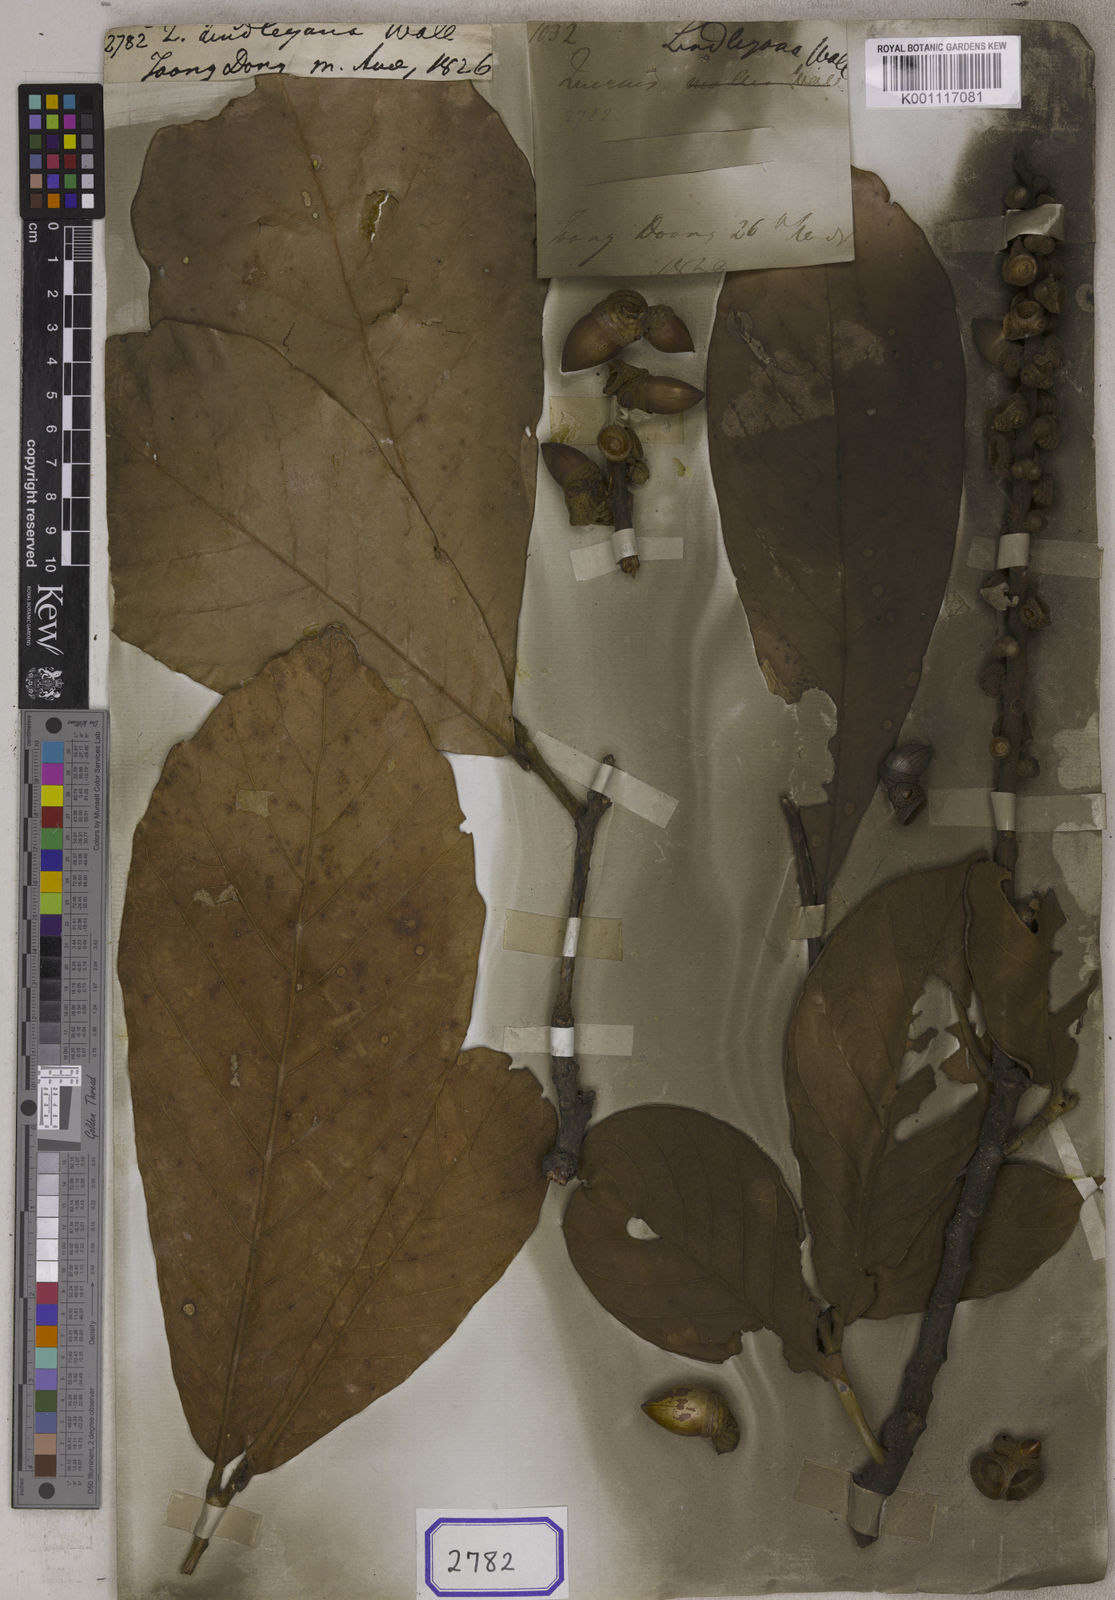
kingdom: Plantae
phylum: Tracheophyta
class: Magnoliopsida
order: Fagales
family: Fagaceae
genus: Quercus
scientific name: Quercus
